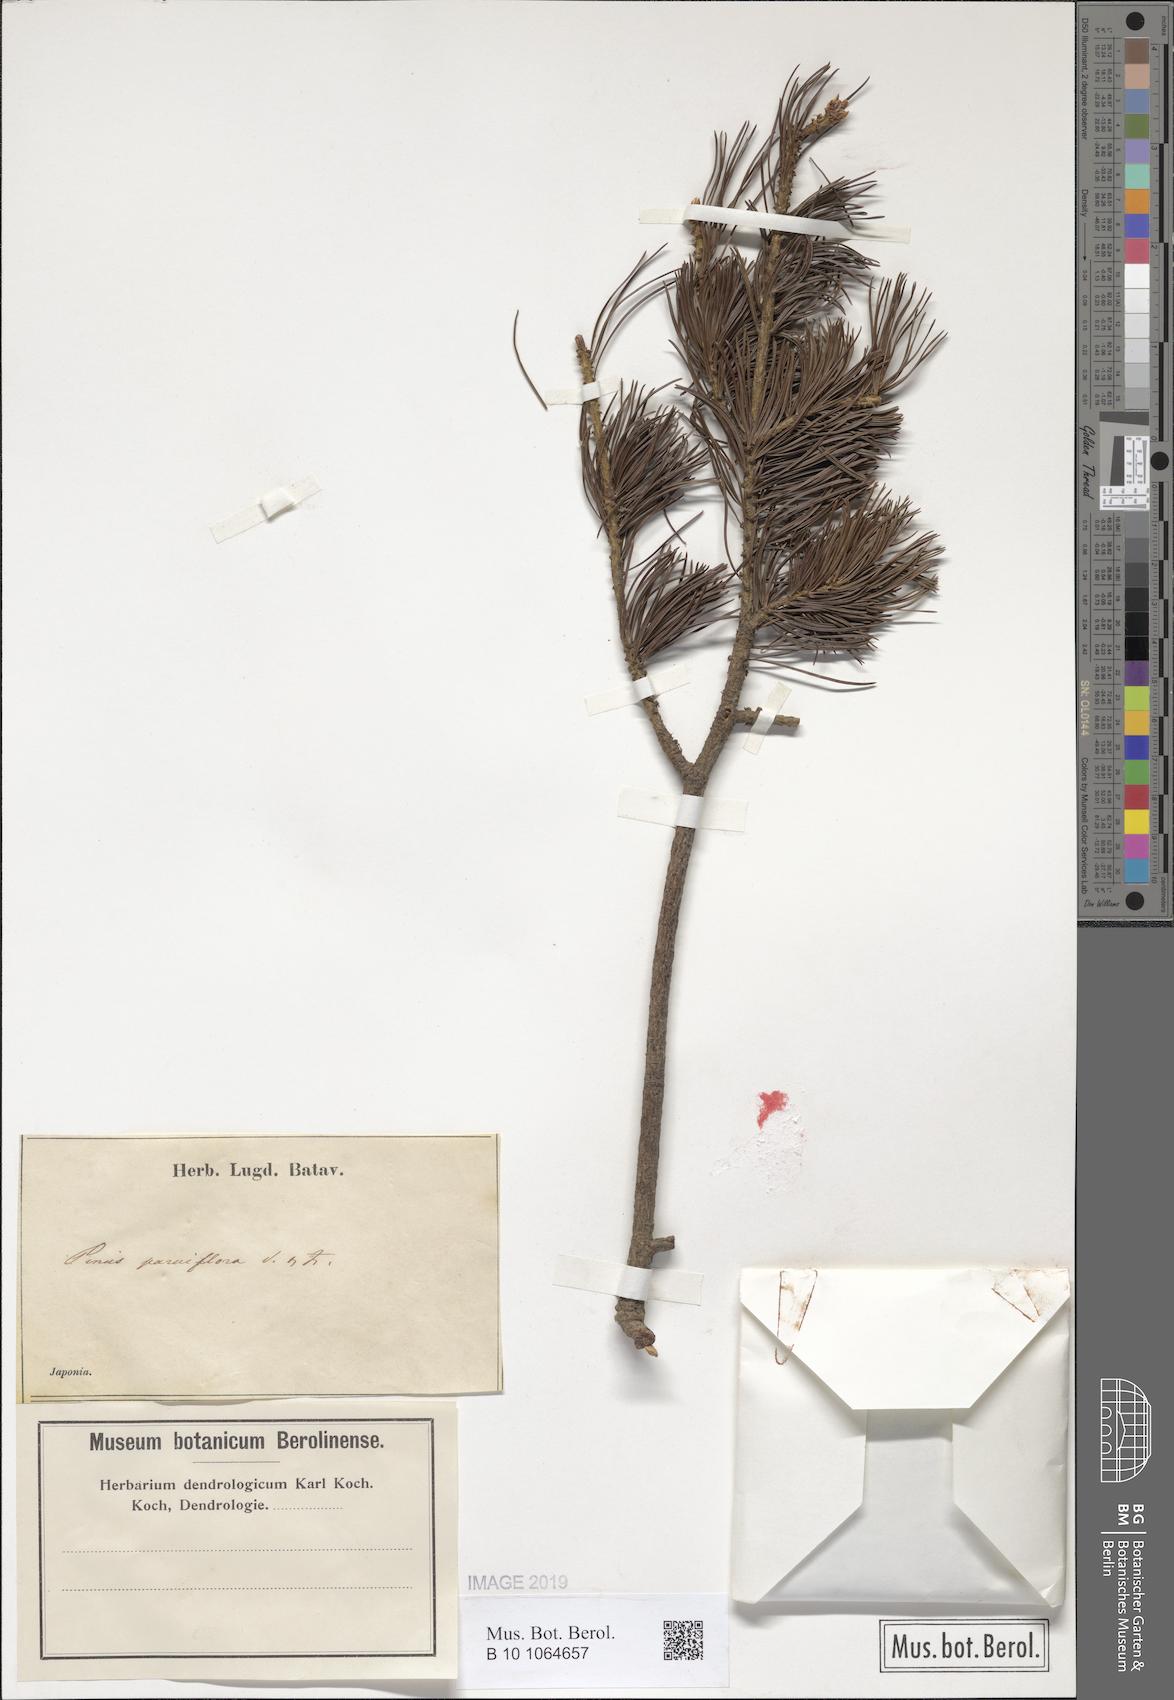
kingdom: Plantae
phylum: Tracheophyta
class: Pinopsida
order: Pinales
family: Pinaceae
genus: Pinus
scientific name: Pinus parviflora
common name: Japanese white pine
